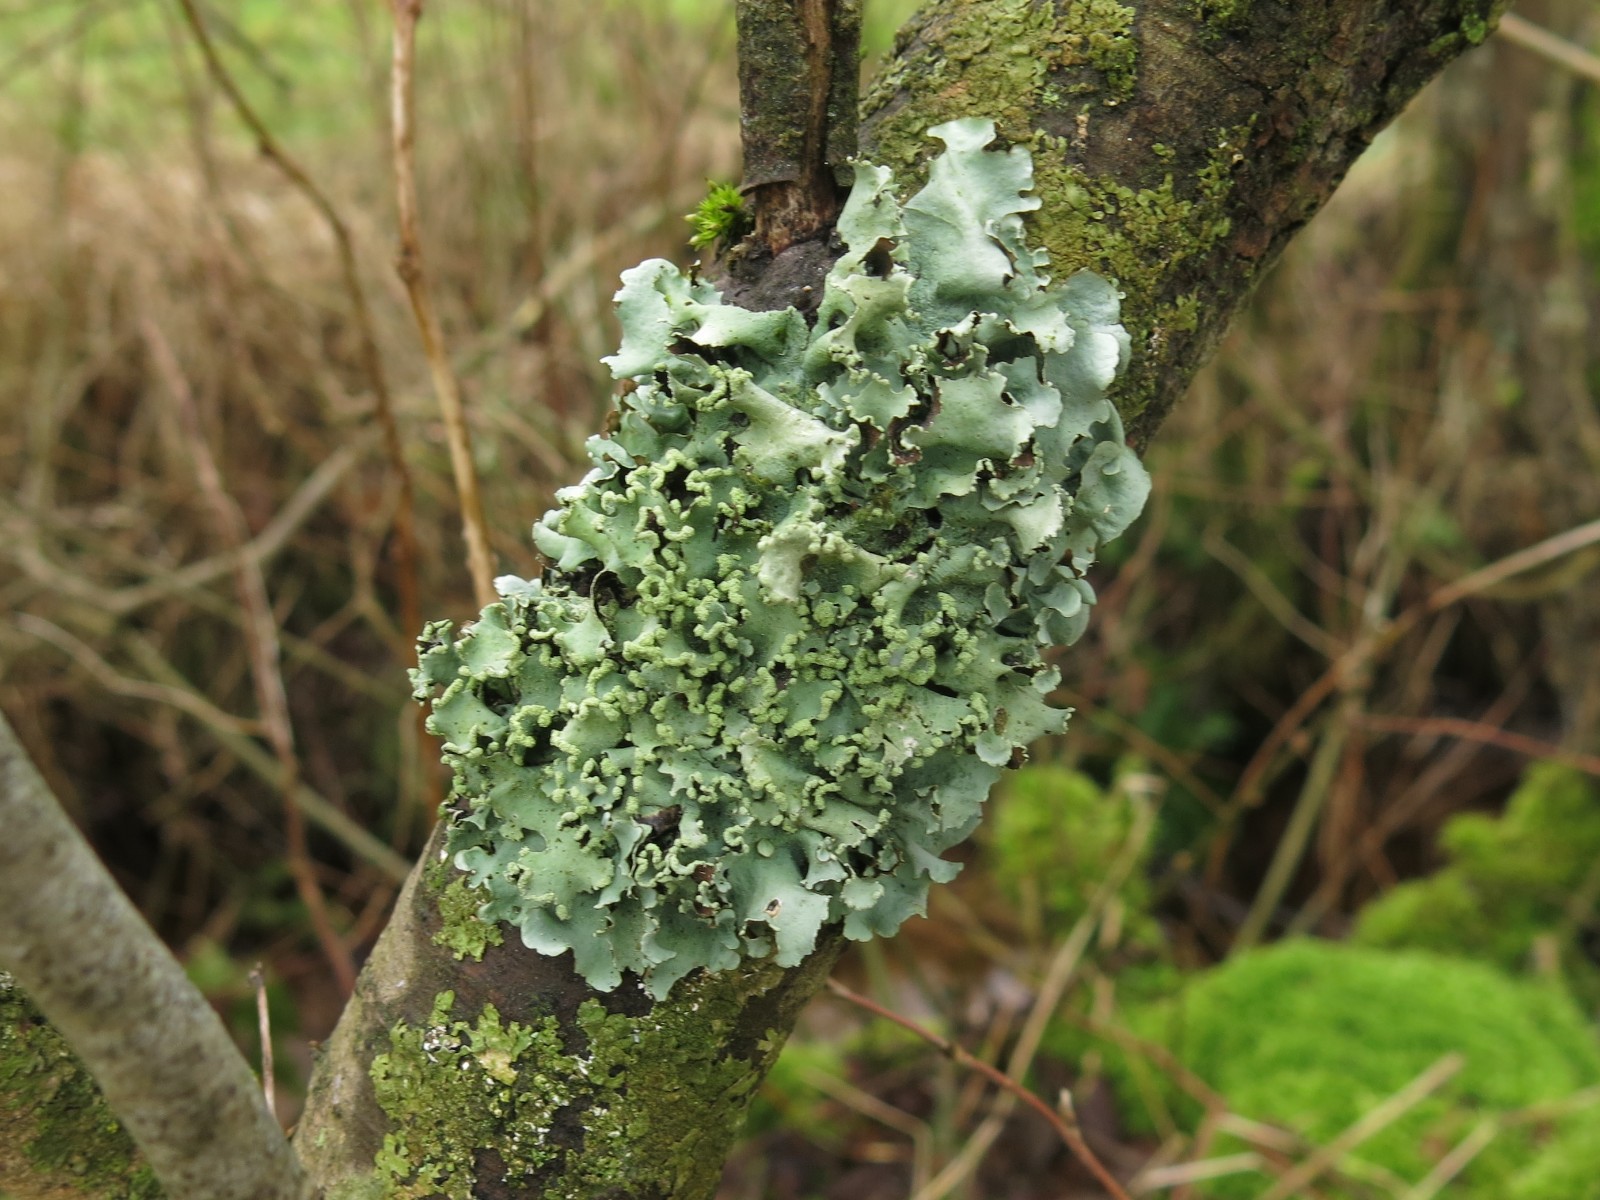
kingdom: Fungi
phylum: Ascomycota
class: Lecanoromycetes
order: Lecanorales
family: Parmeliaceae
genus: Parmotrema
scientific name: Parmotrema perlatum
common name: trådet skållav
